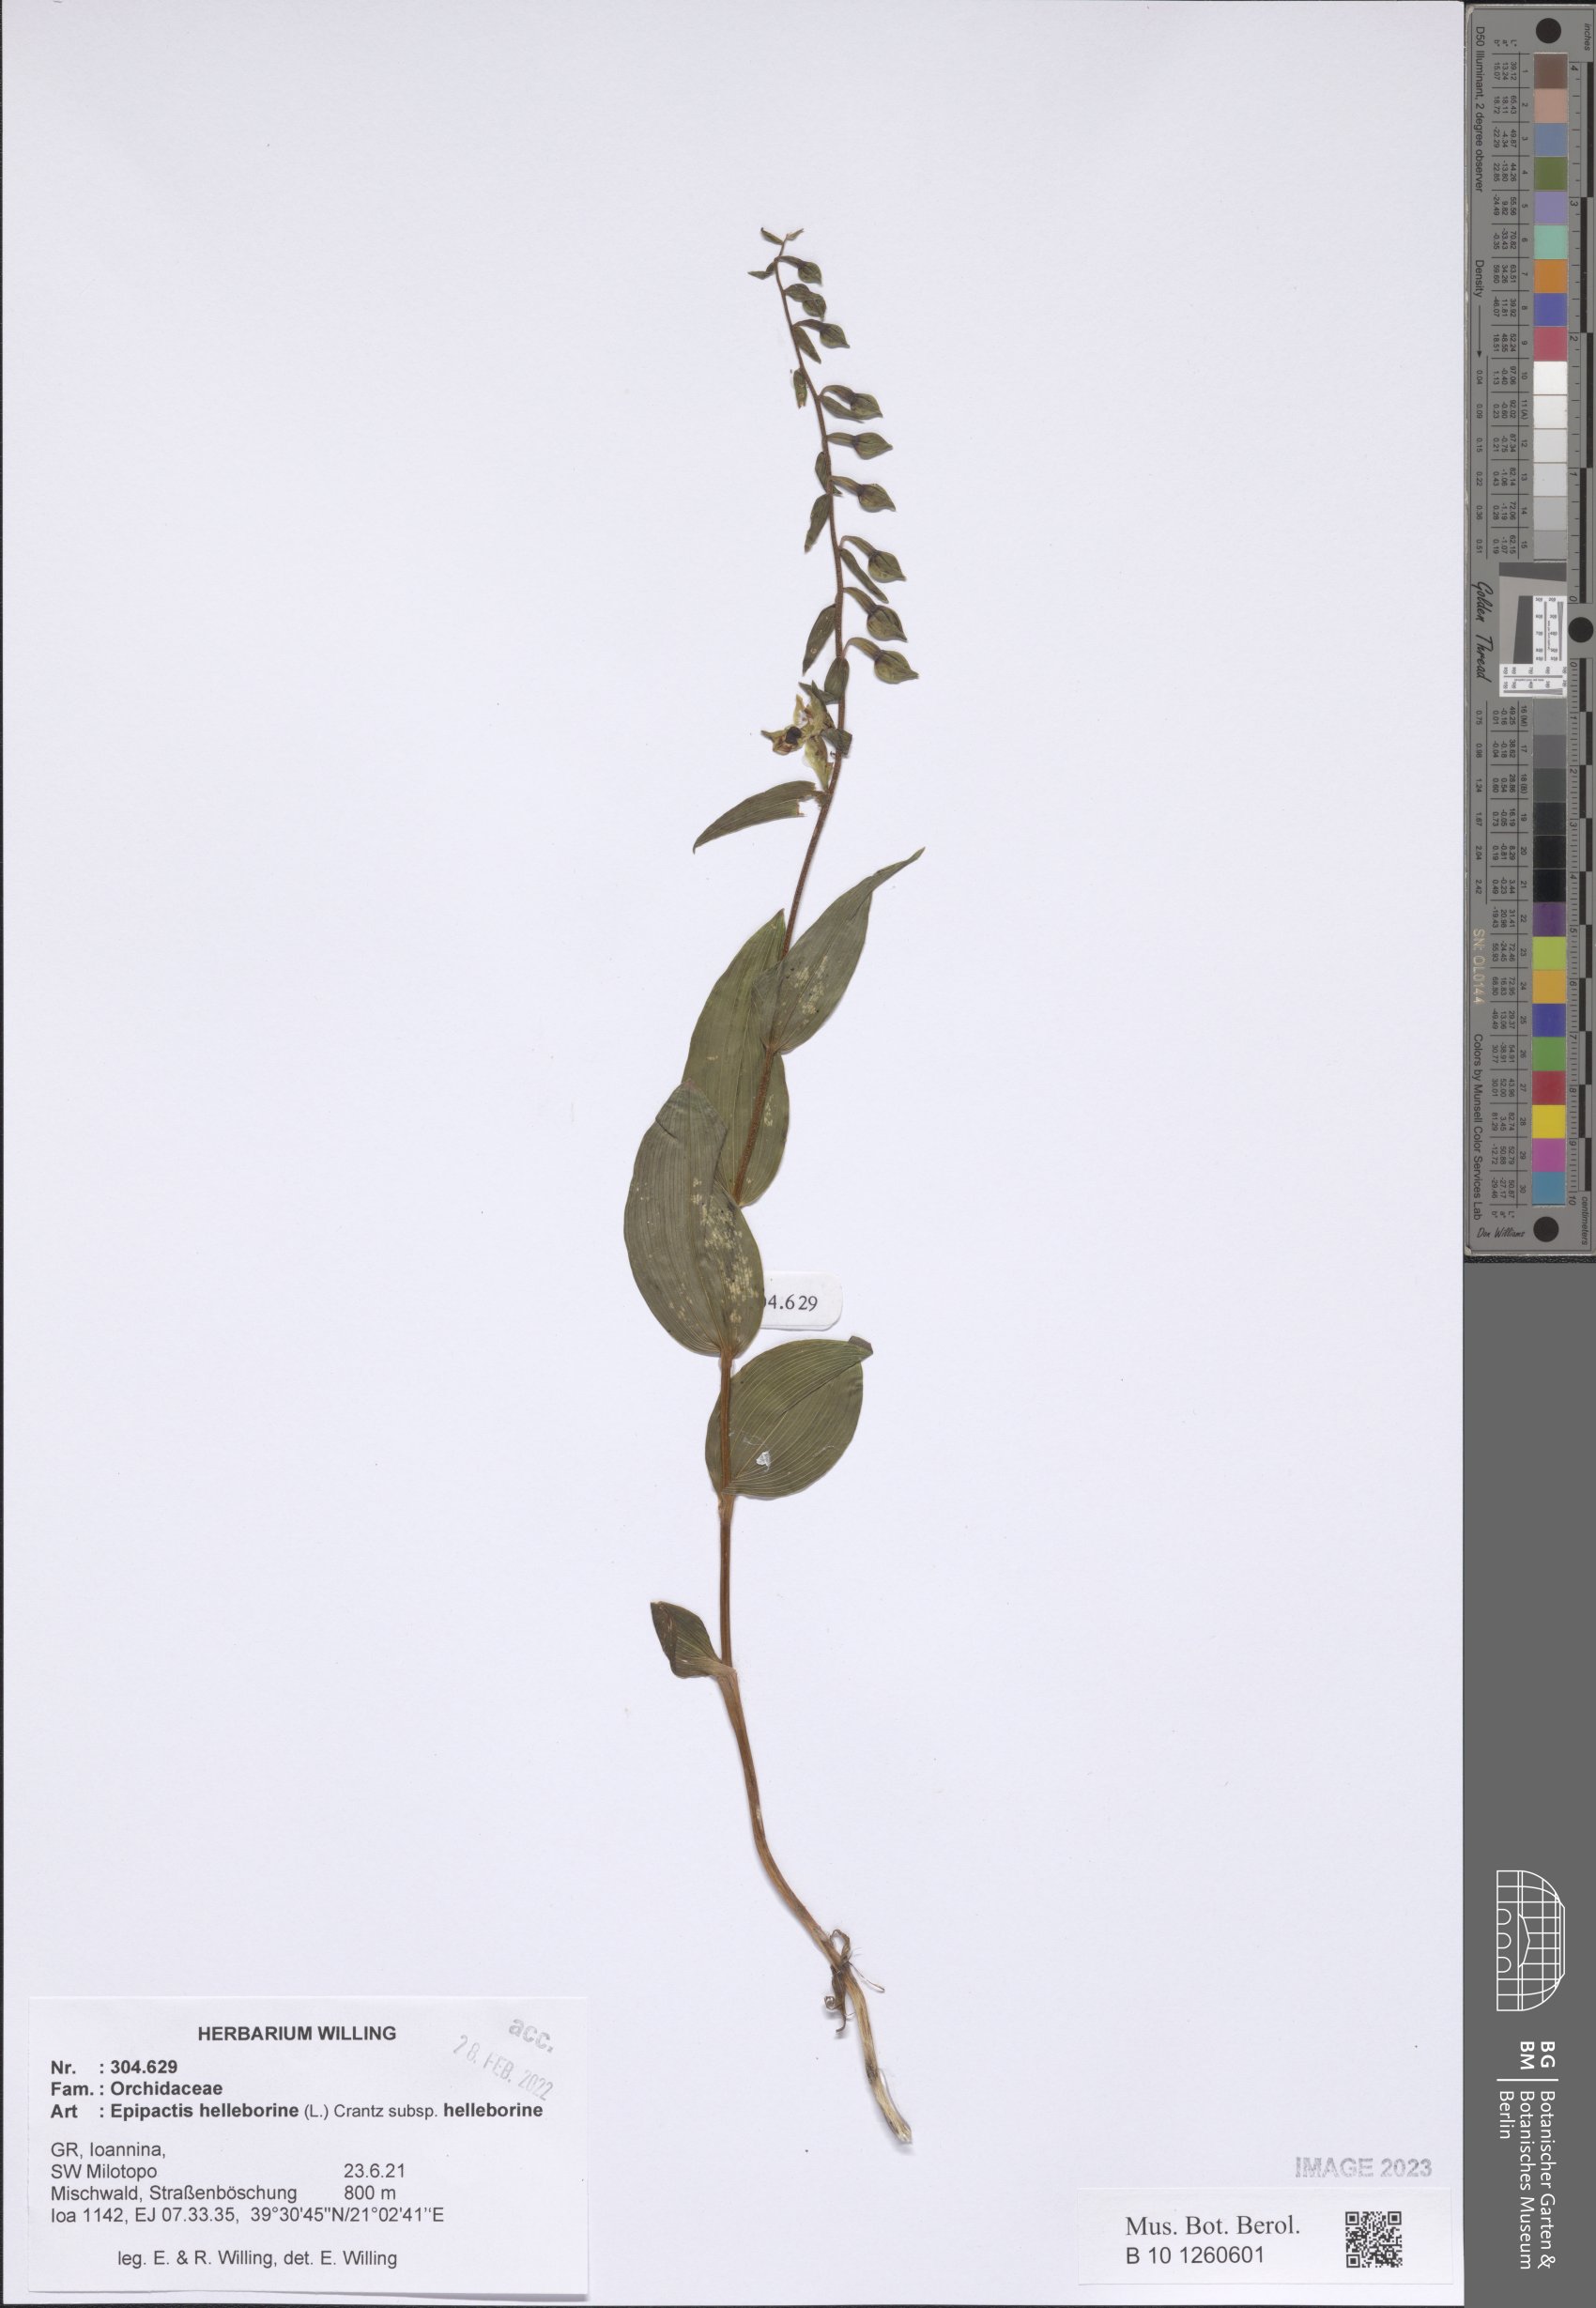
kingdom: Plantae
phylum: Tracheophyta
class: Liliopsida
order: Asparagales
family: Orchidaceae
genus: Epipactis
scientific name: Epipactis helleborine
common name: Broad-leaved helleborine
